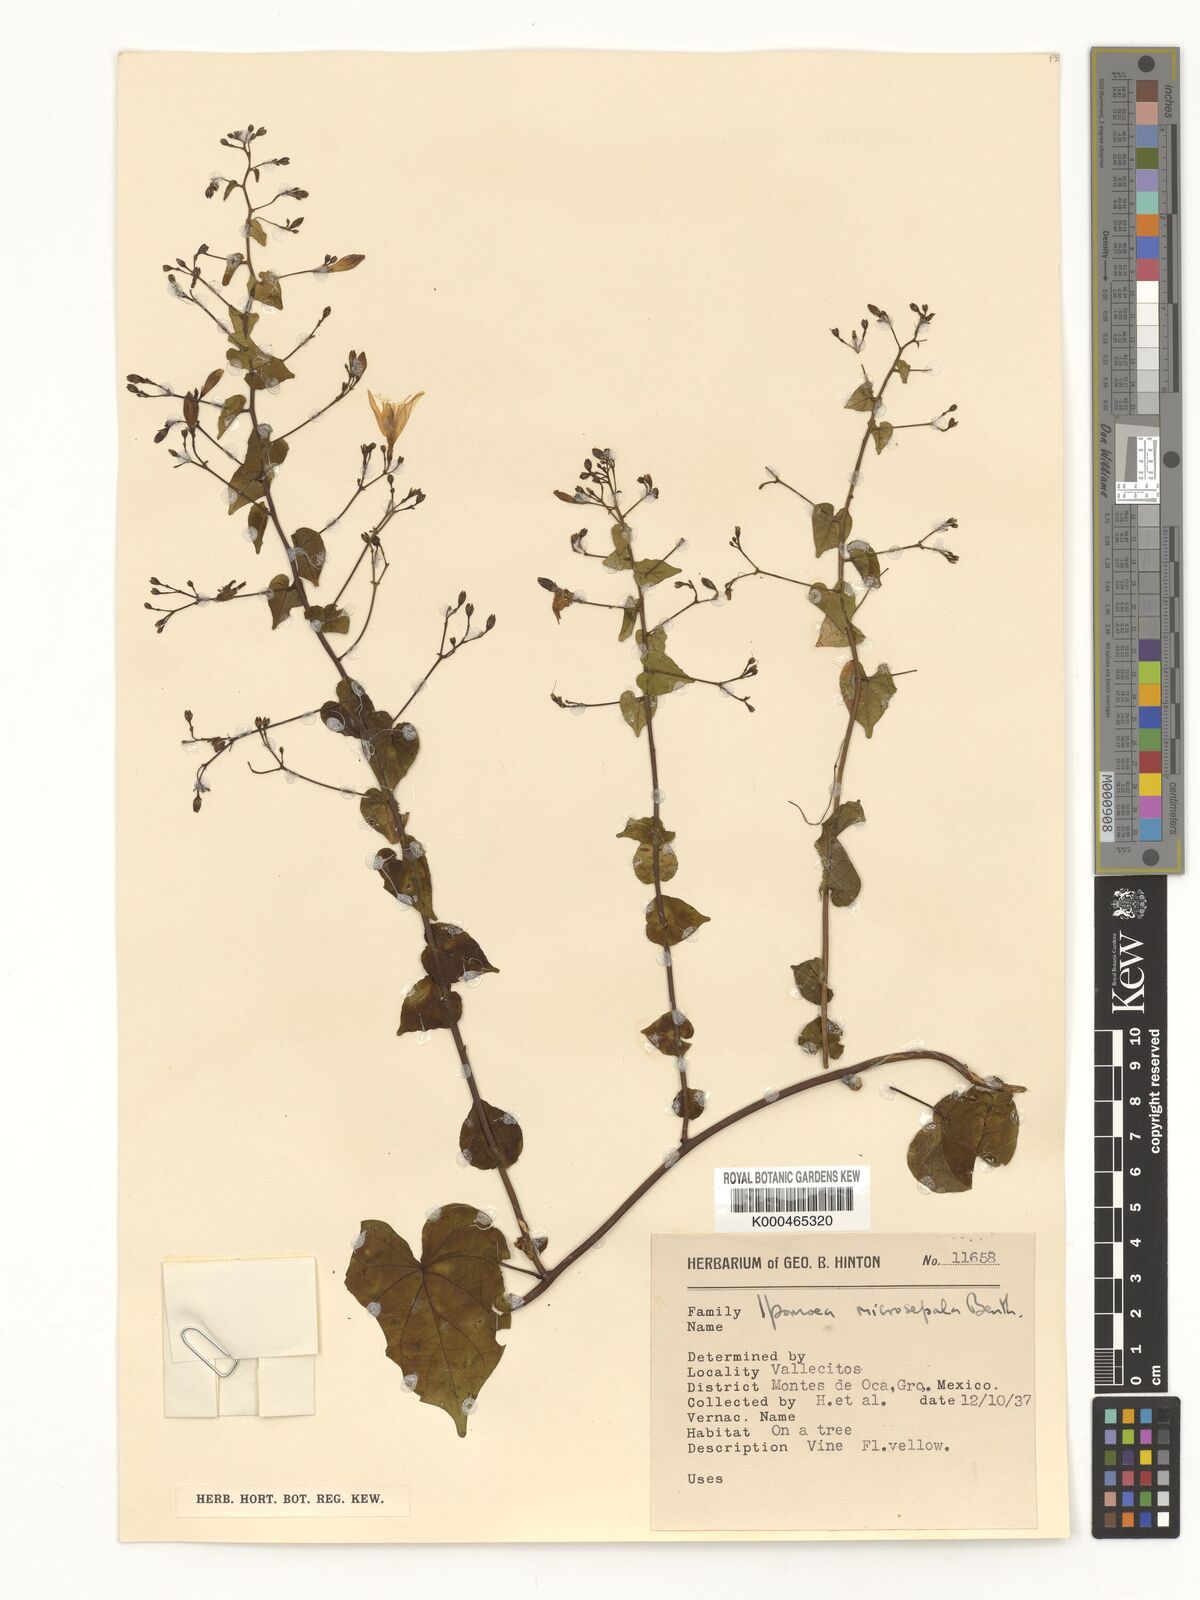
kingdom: Plantae
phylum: Tracheophyta
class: Magnoliopsida
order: Solanales
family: Convolvulaceae
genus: Ipomoea
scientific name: Ipomoea microsepala
